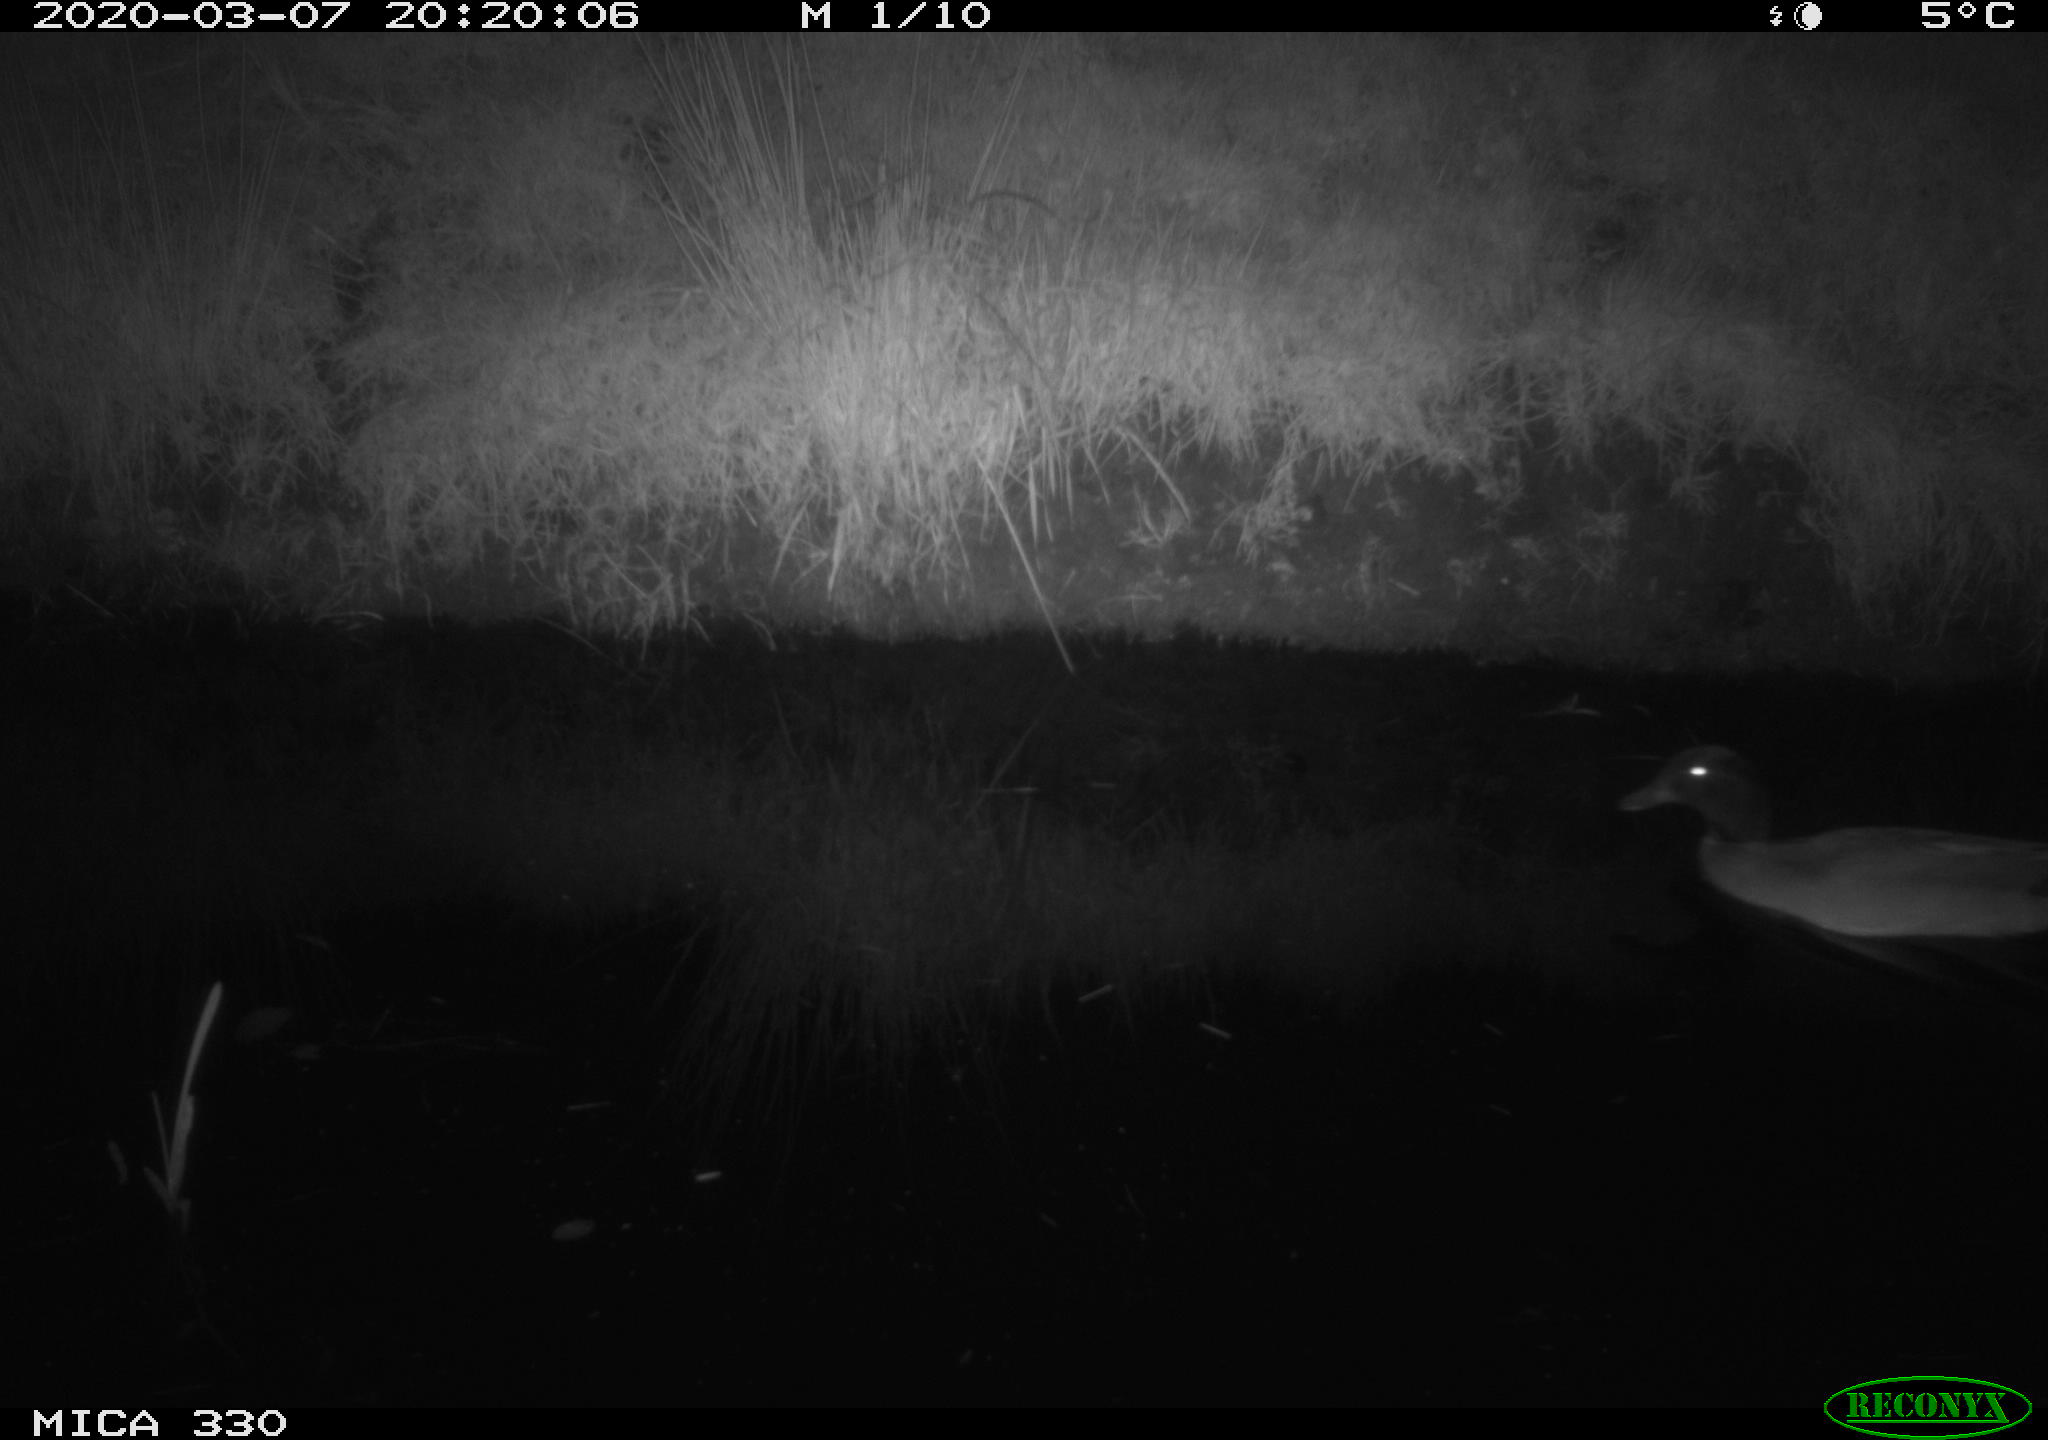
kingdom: Animalia
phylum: Chordata
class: Aves
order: Anseriformes
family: Anatidae
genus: Anas
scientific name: Anas platyrhynchos
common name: Mallard
